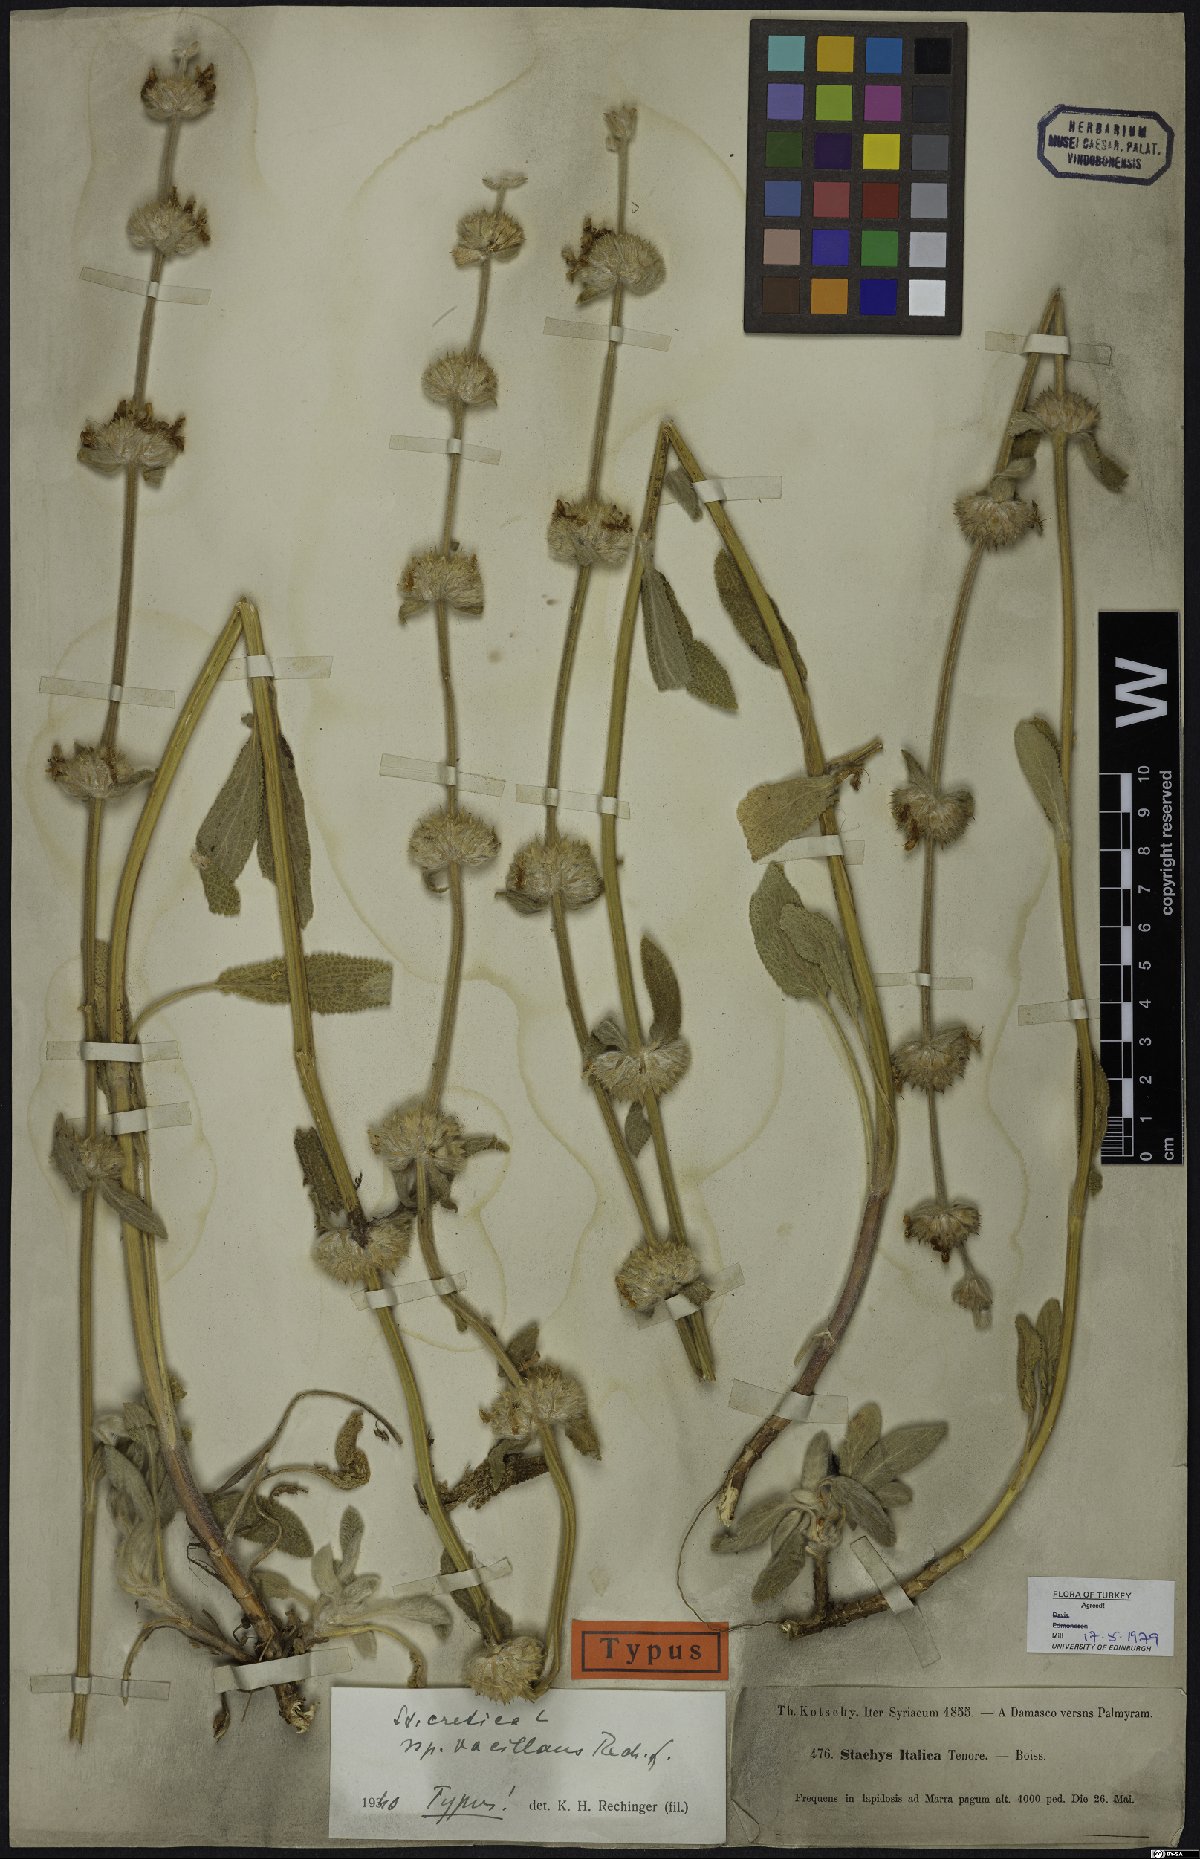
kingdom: Plantae
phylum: Tracheophyta
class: Magnoliopsida
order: Lamiales
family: Lamiaceae
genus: Stachys
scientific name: Stachys cretica
